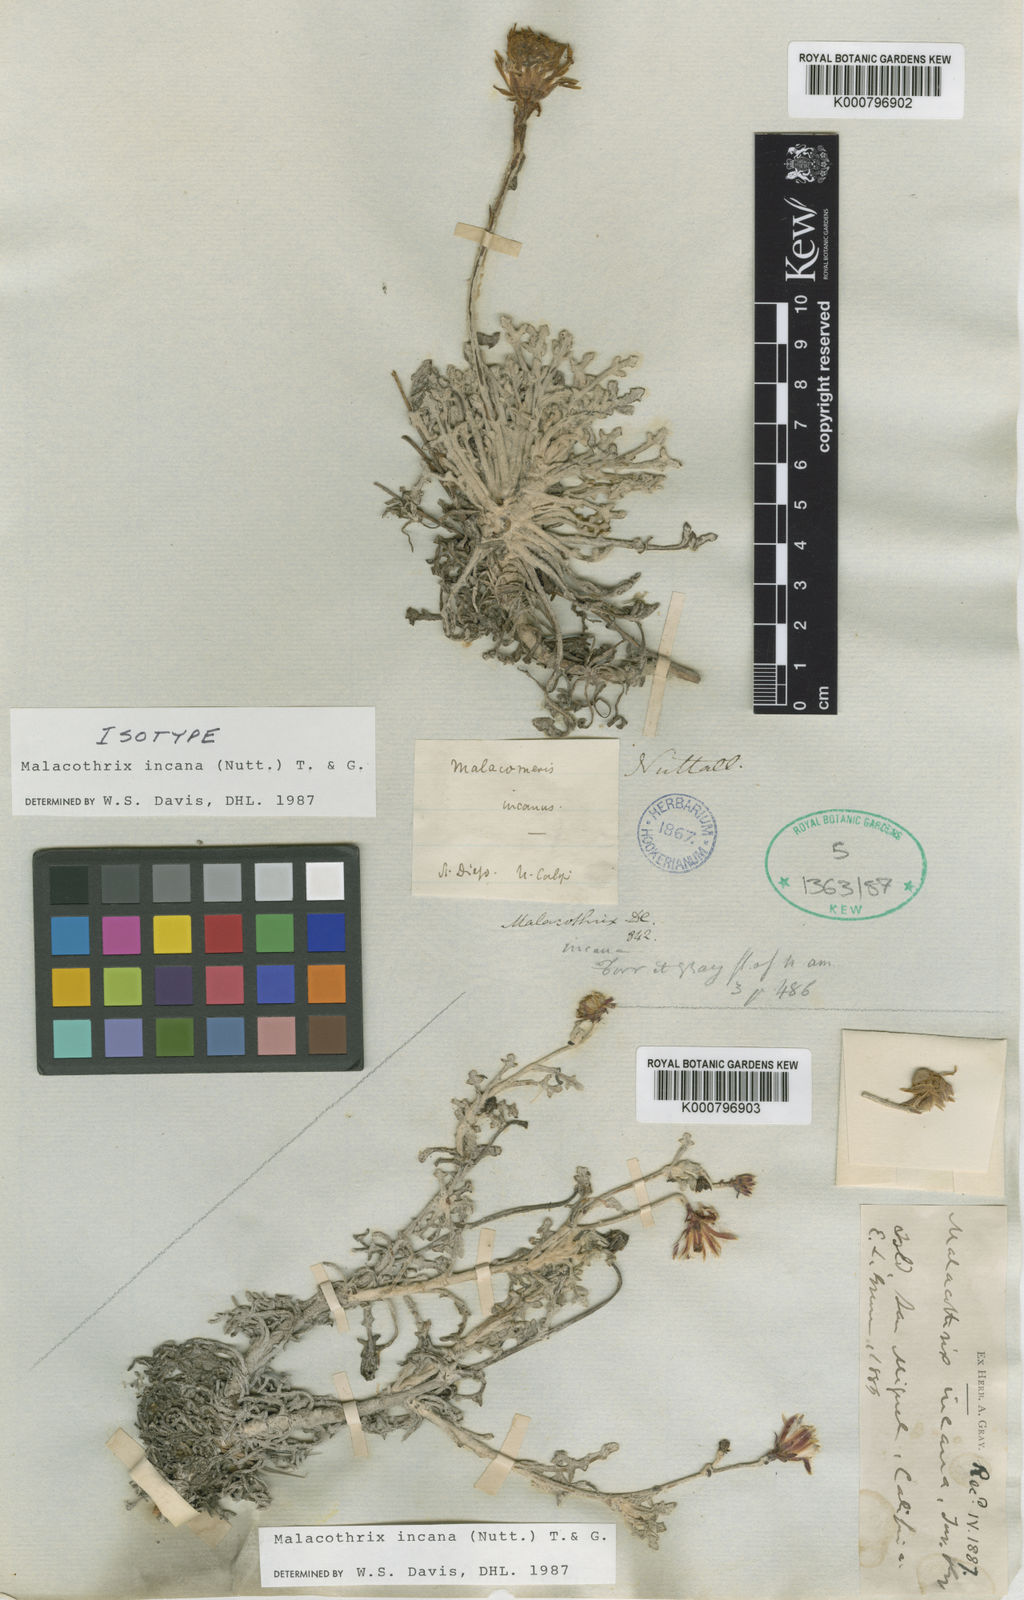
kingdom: Plantae
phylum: Tracheophyta
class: Magnoliopsida
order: Asterales
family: Asteraceae
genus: Malacothrix
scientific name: Malacothrix incana
